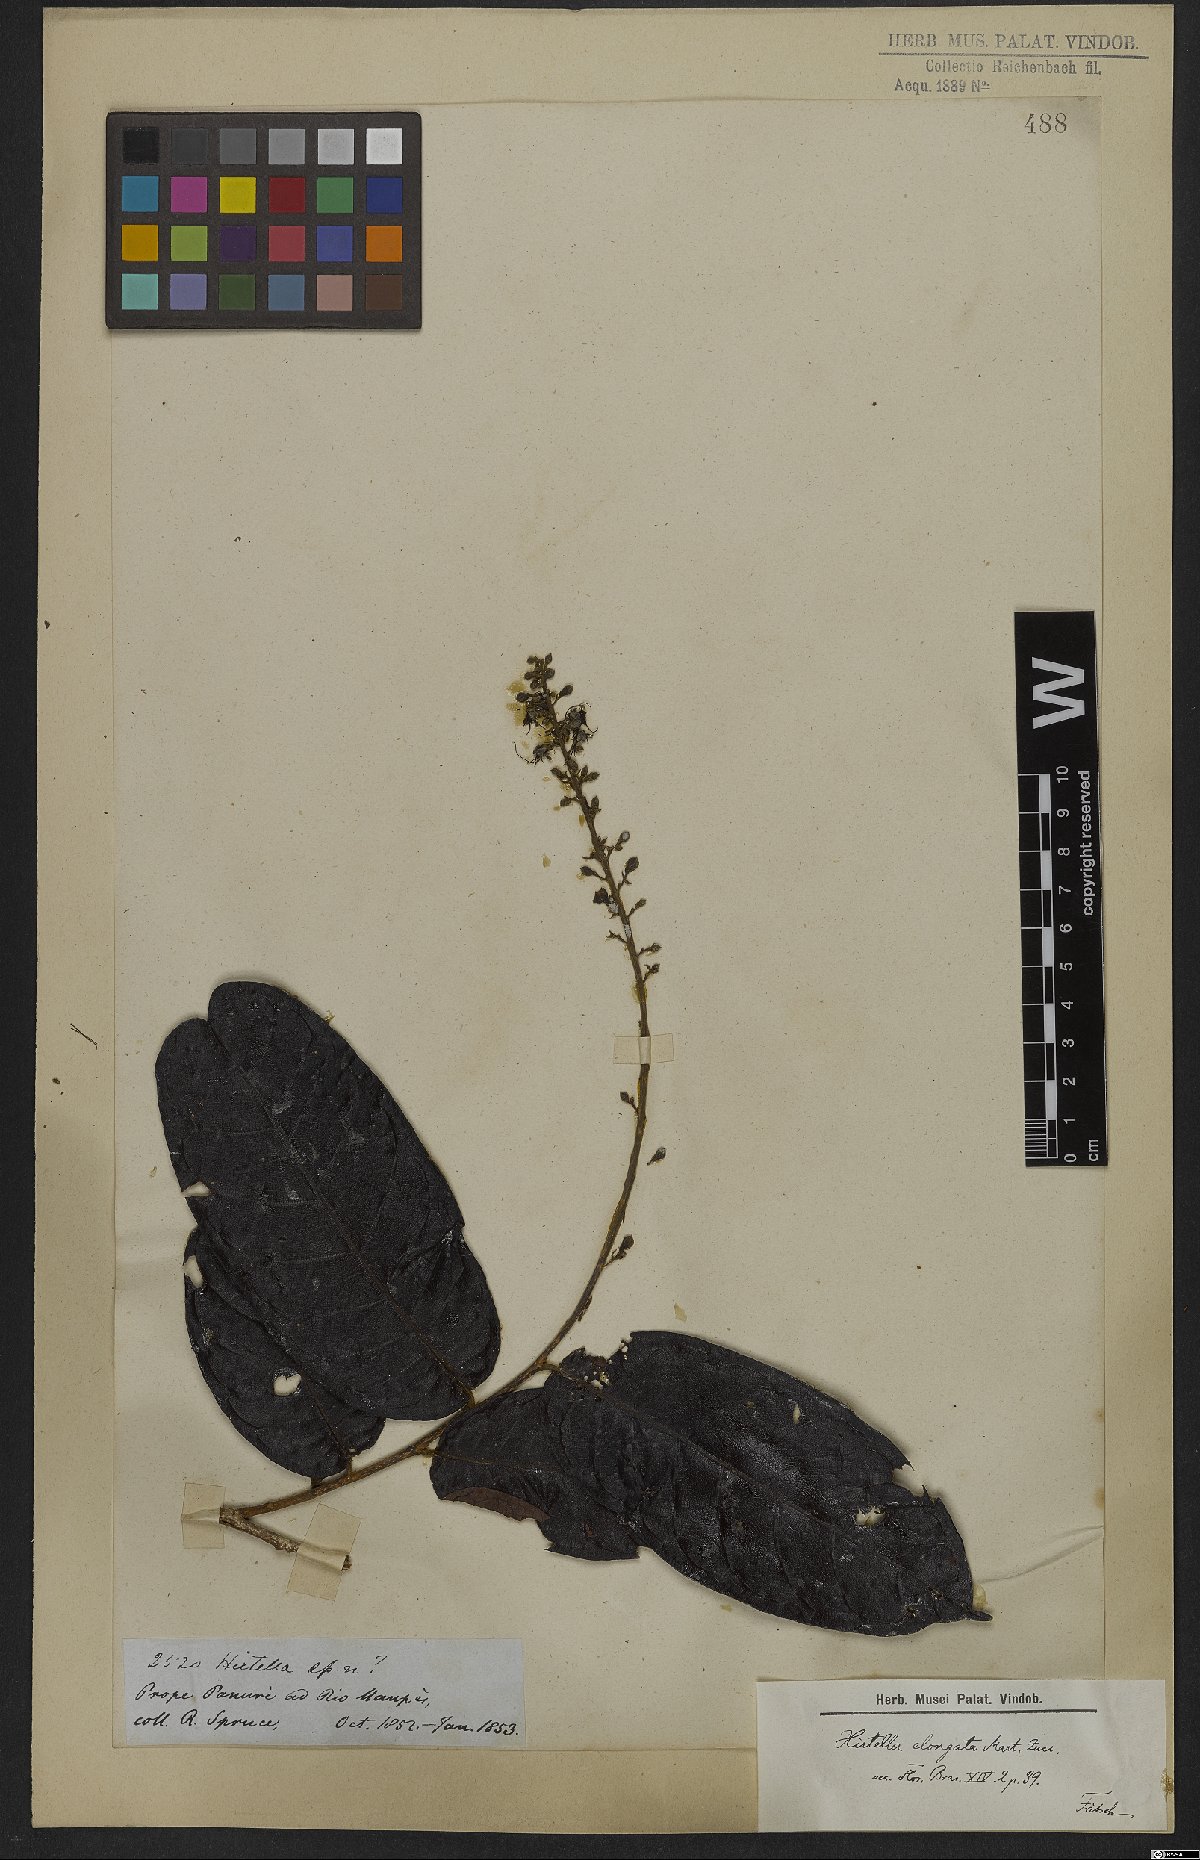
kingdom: Plantae
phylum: Tracheophyta
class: Magnoliopsida
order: Malpighiales
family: Chrysobalanaceae
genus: Hirtella
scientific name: Hirtella elongata
